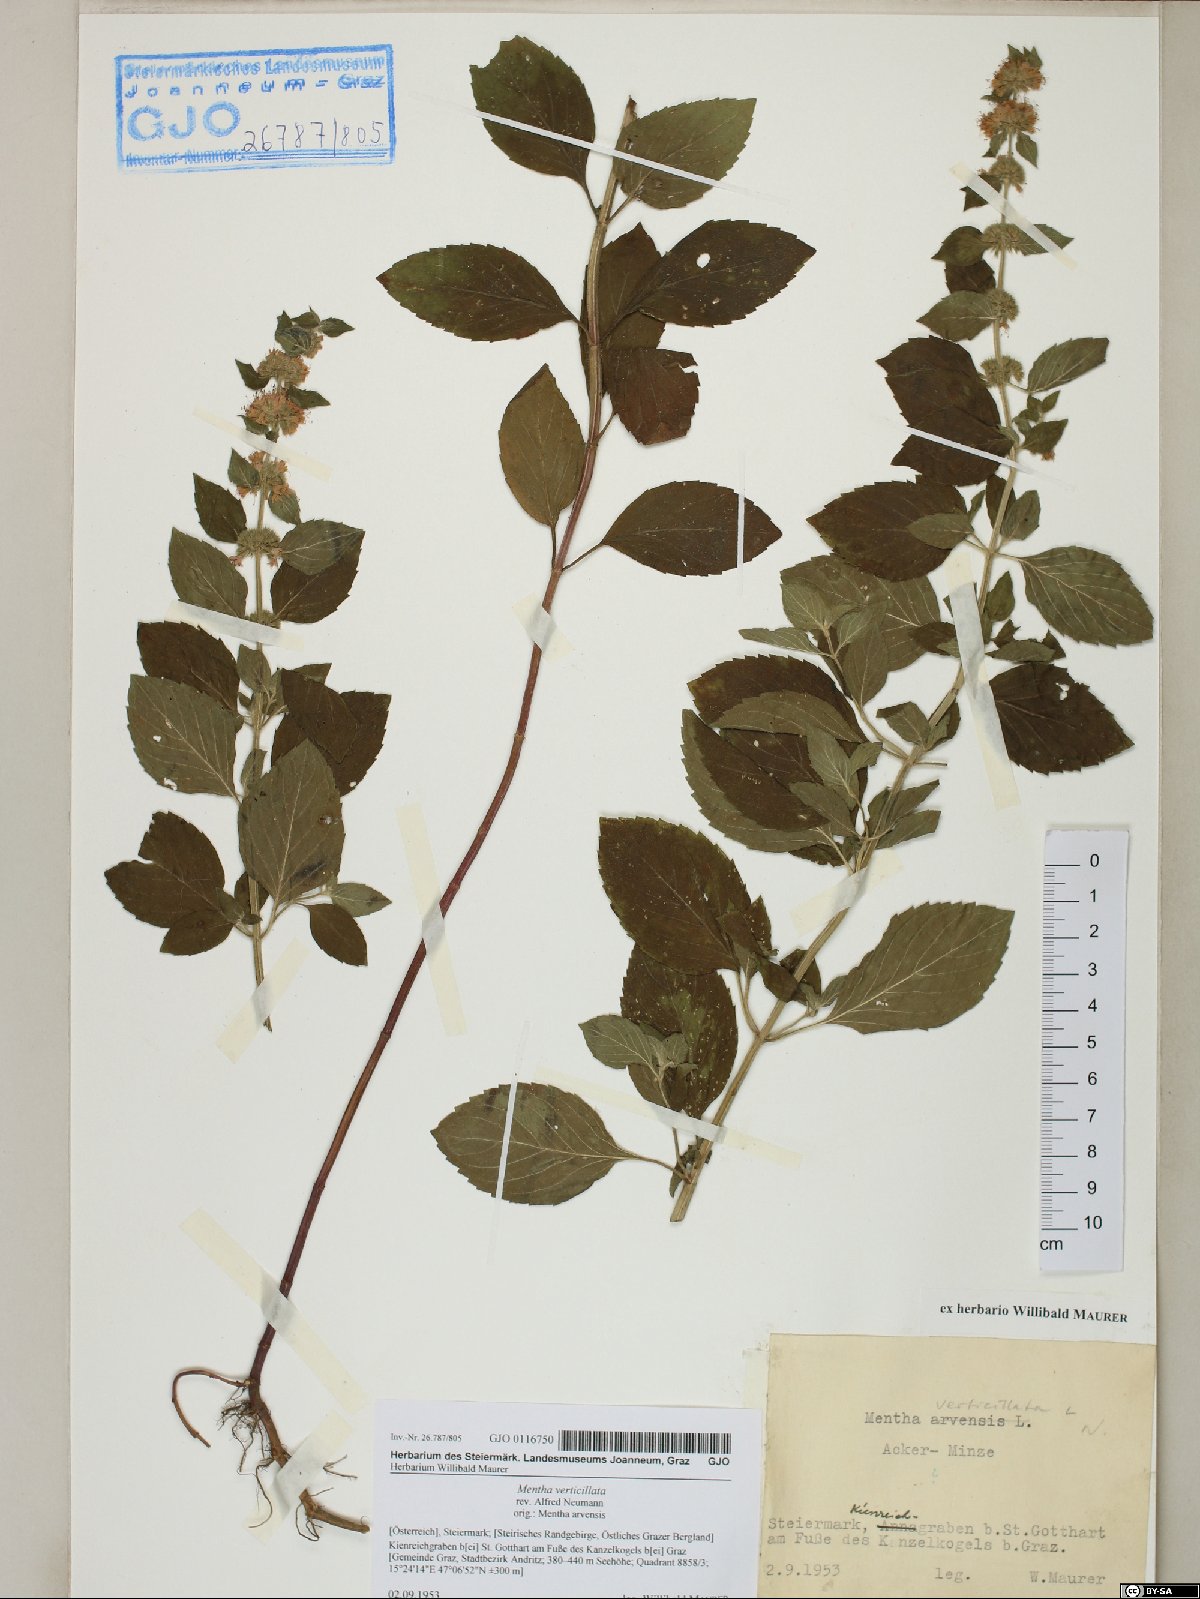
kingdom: Plantae
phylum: Tracheophyta
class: Magnoliopsida
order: Lamiales
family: Lamiaceae
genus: Mentha
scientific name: Mentha verticillata
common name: Mint
